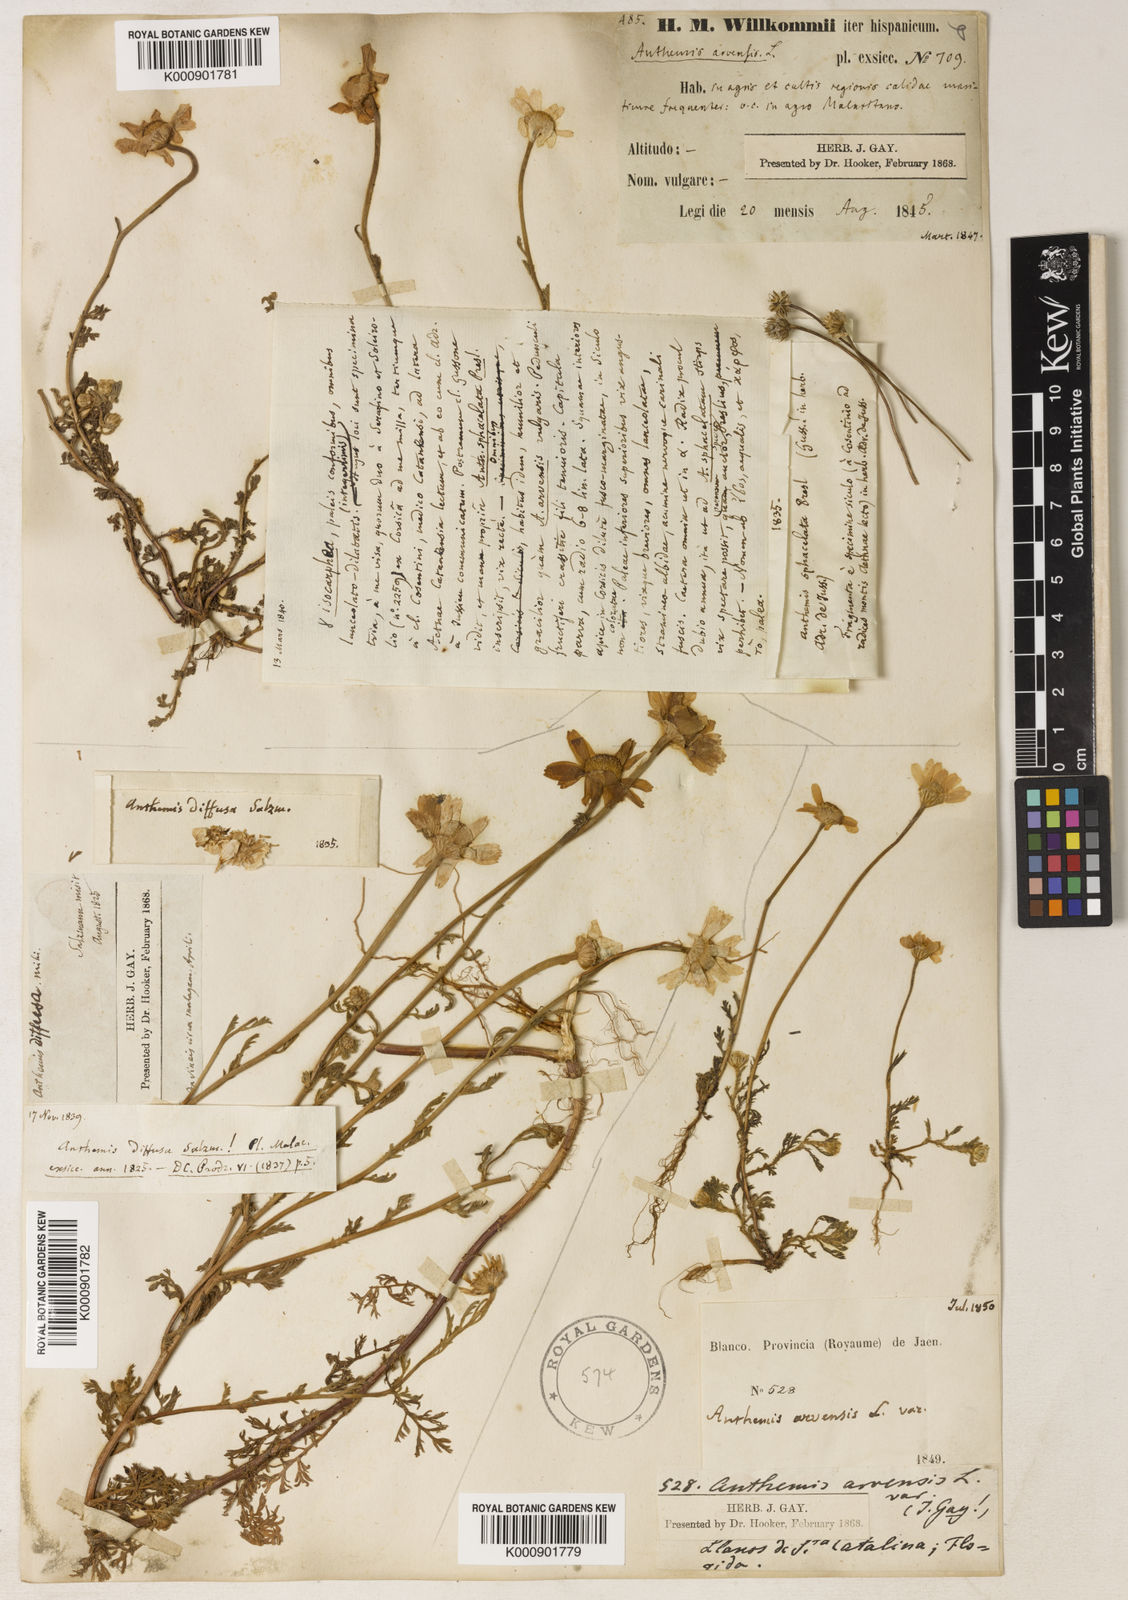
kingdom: Plantae
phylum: Tracheophyta
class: Magnoliopsida
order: Asterales
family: Asteraceae
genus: Anthemis
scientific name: Anthemis arvensis
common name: Corn chamomile
